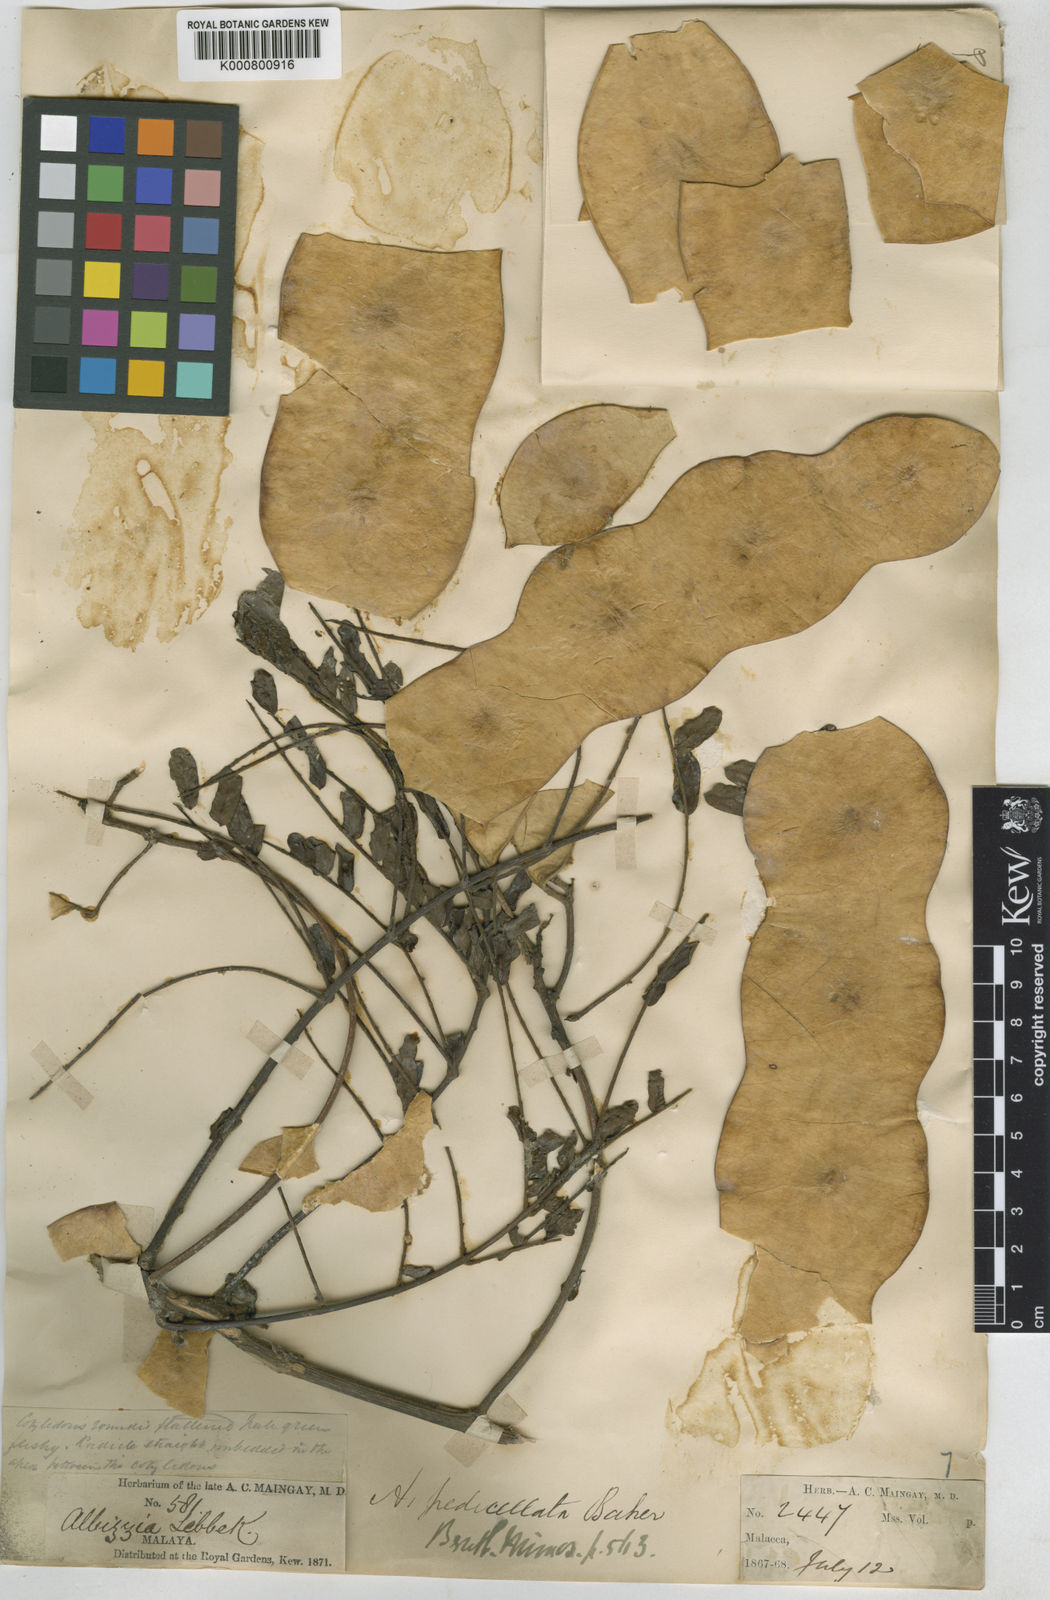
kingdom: Plantae
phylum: Tracheophyta
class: Magnoliopsida
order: Fabales
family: Fabaceae
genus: Albizia
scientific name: Albizia pedicellata
